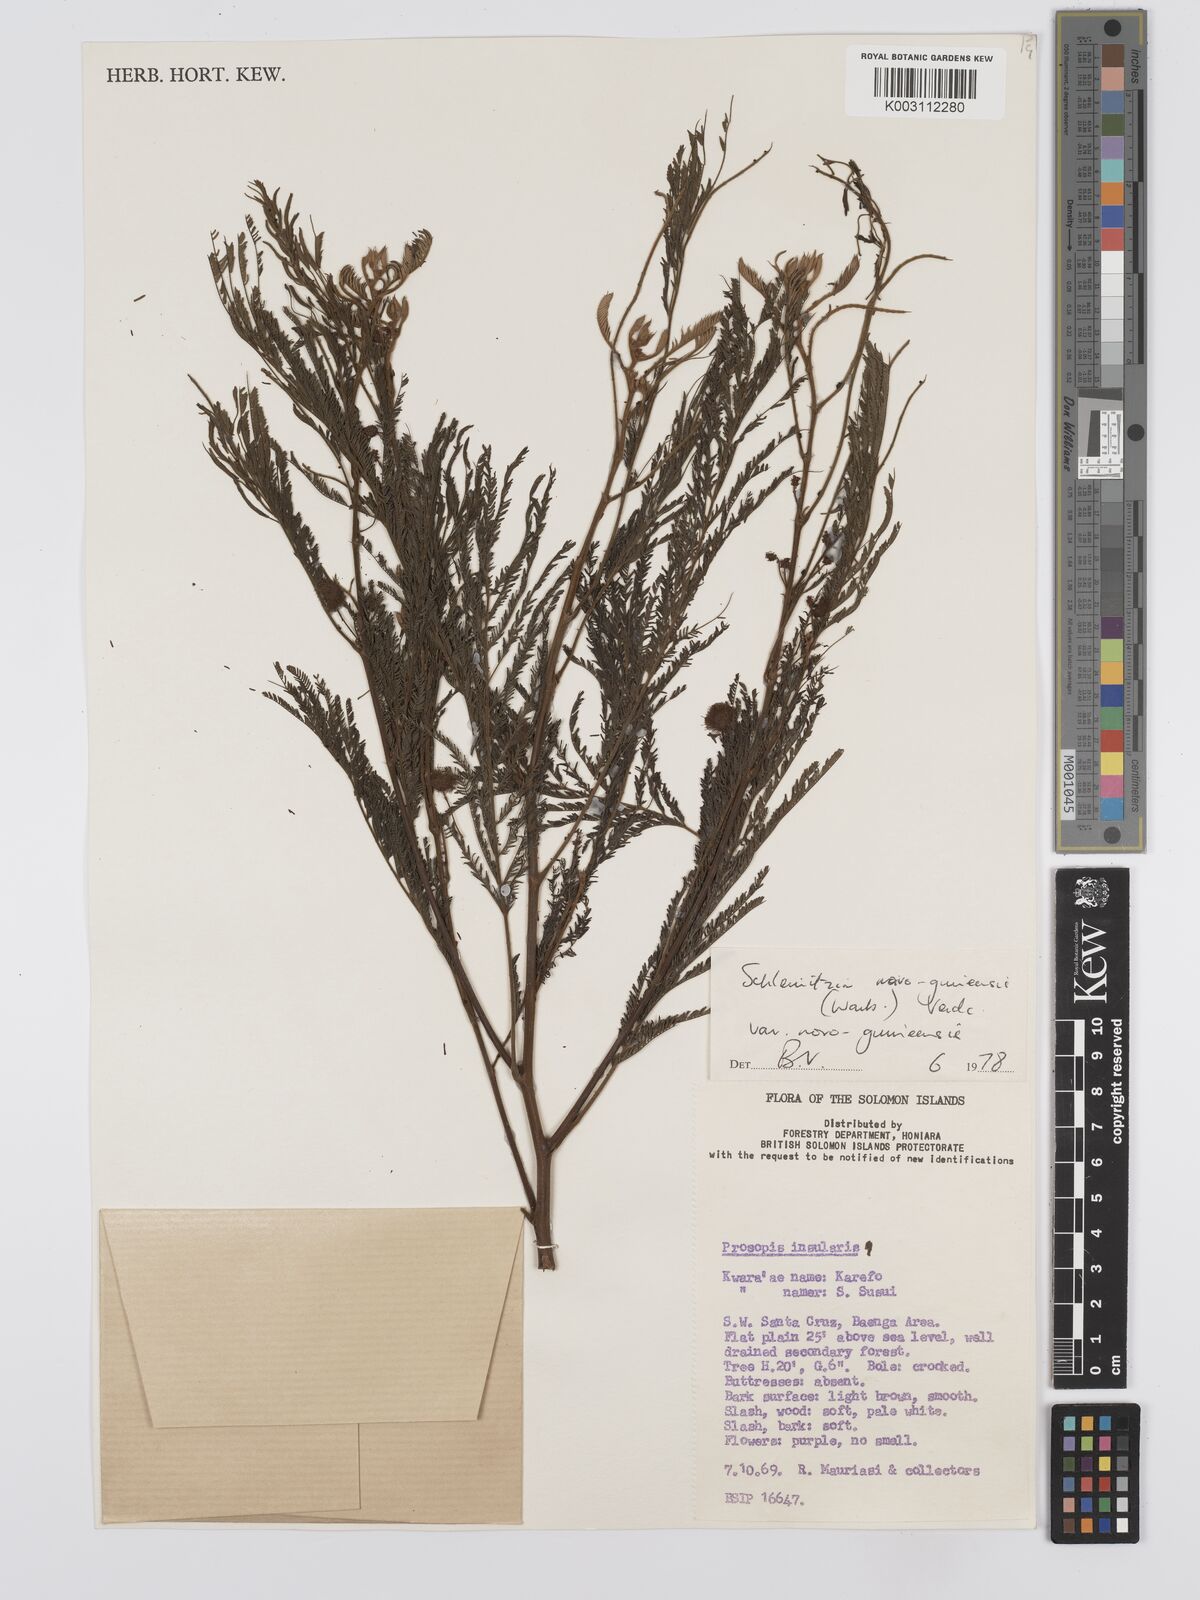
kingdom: Plantae
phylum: Tracheophyta
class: Magnoliopsida
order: Fabales
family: Fabaceae
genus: Schleinitzia
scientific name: Schleinitzia novoguineensis
